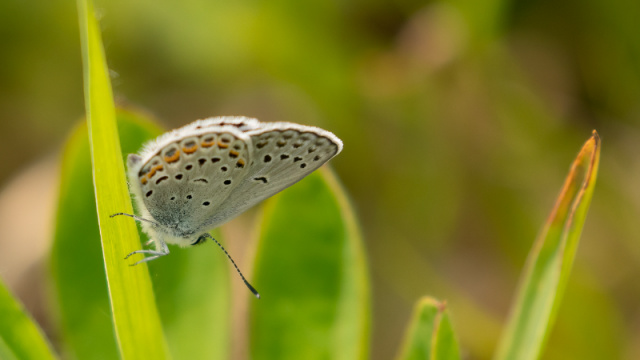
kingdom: Animalia
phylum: Arthropoda
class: Insecta
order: Lepidoptera
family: Lycaenidae
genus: Plebejus
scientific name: Plebejus samuelis
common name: Karner Blue
